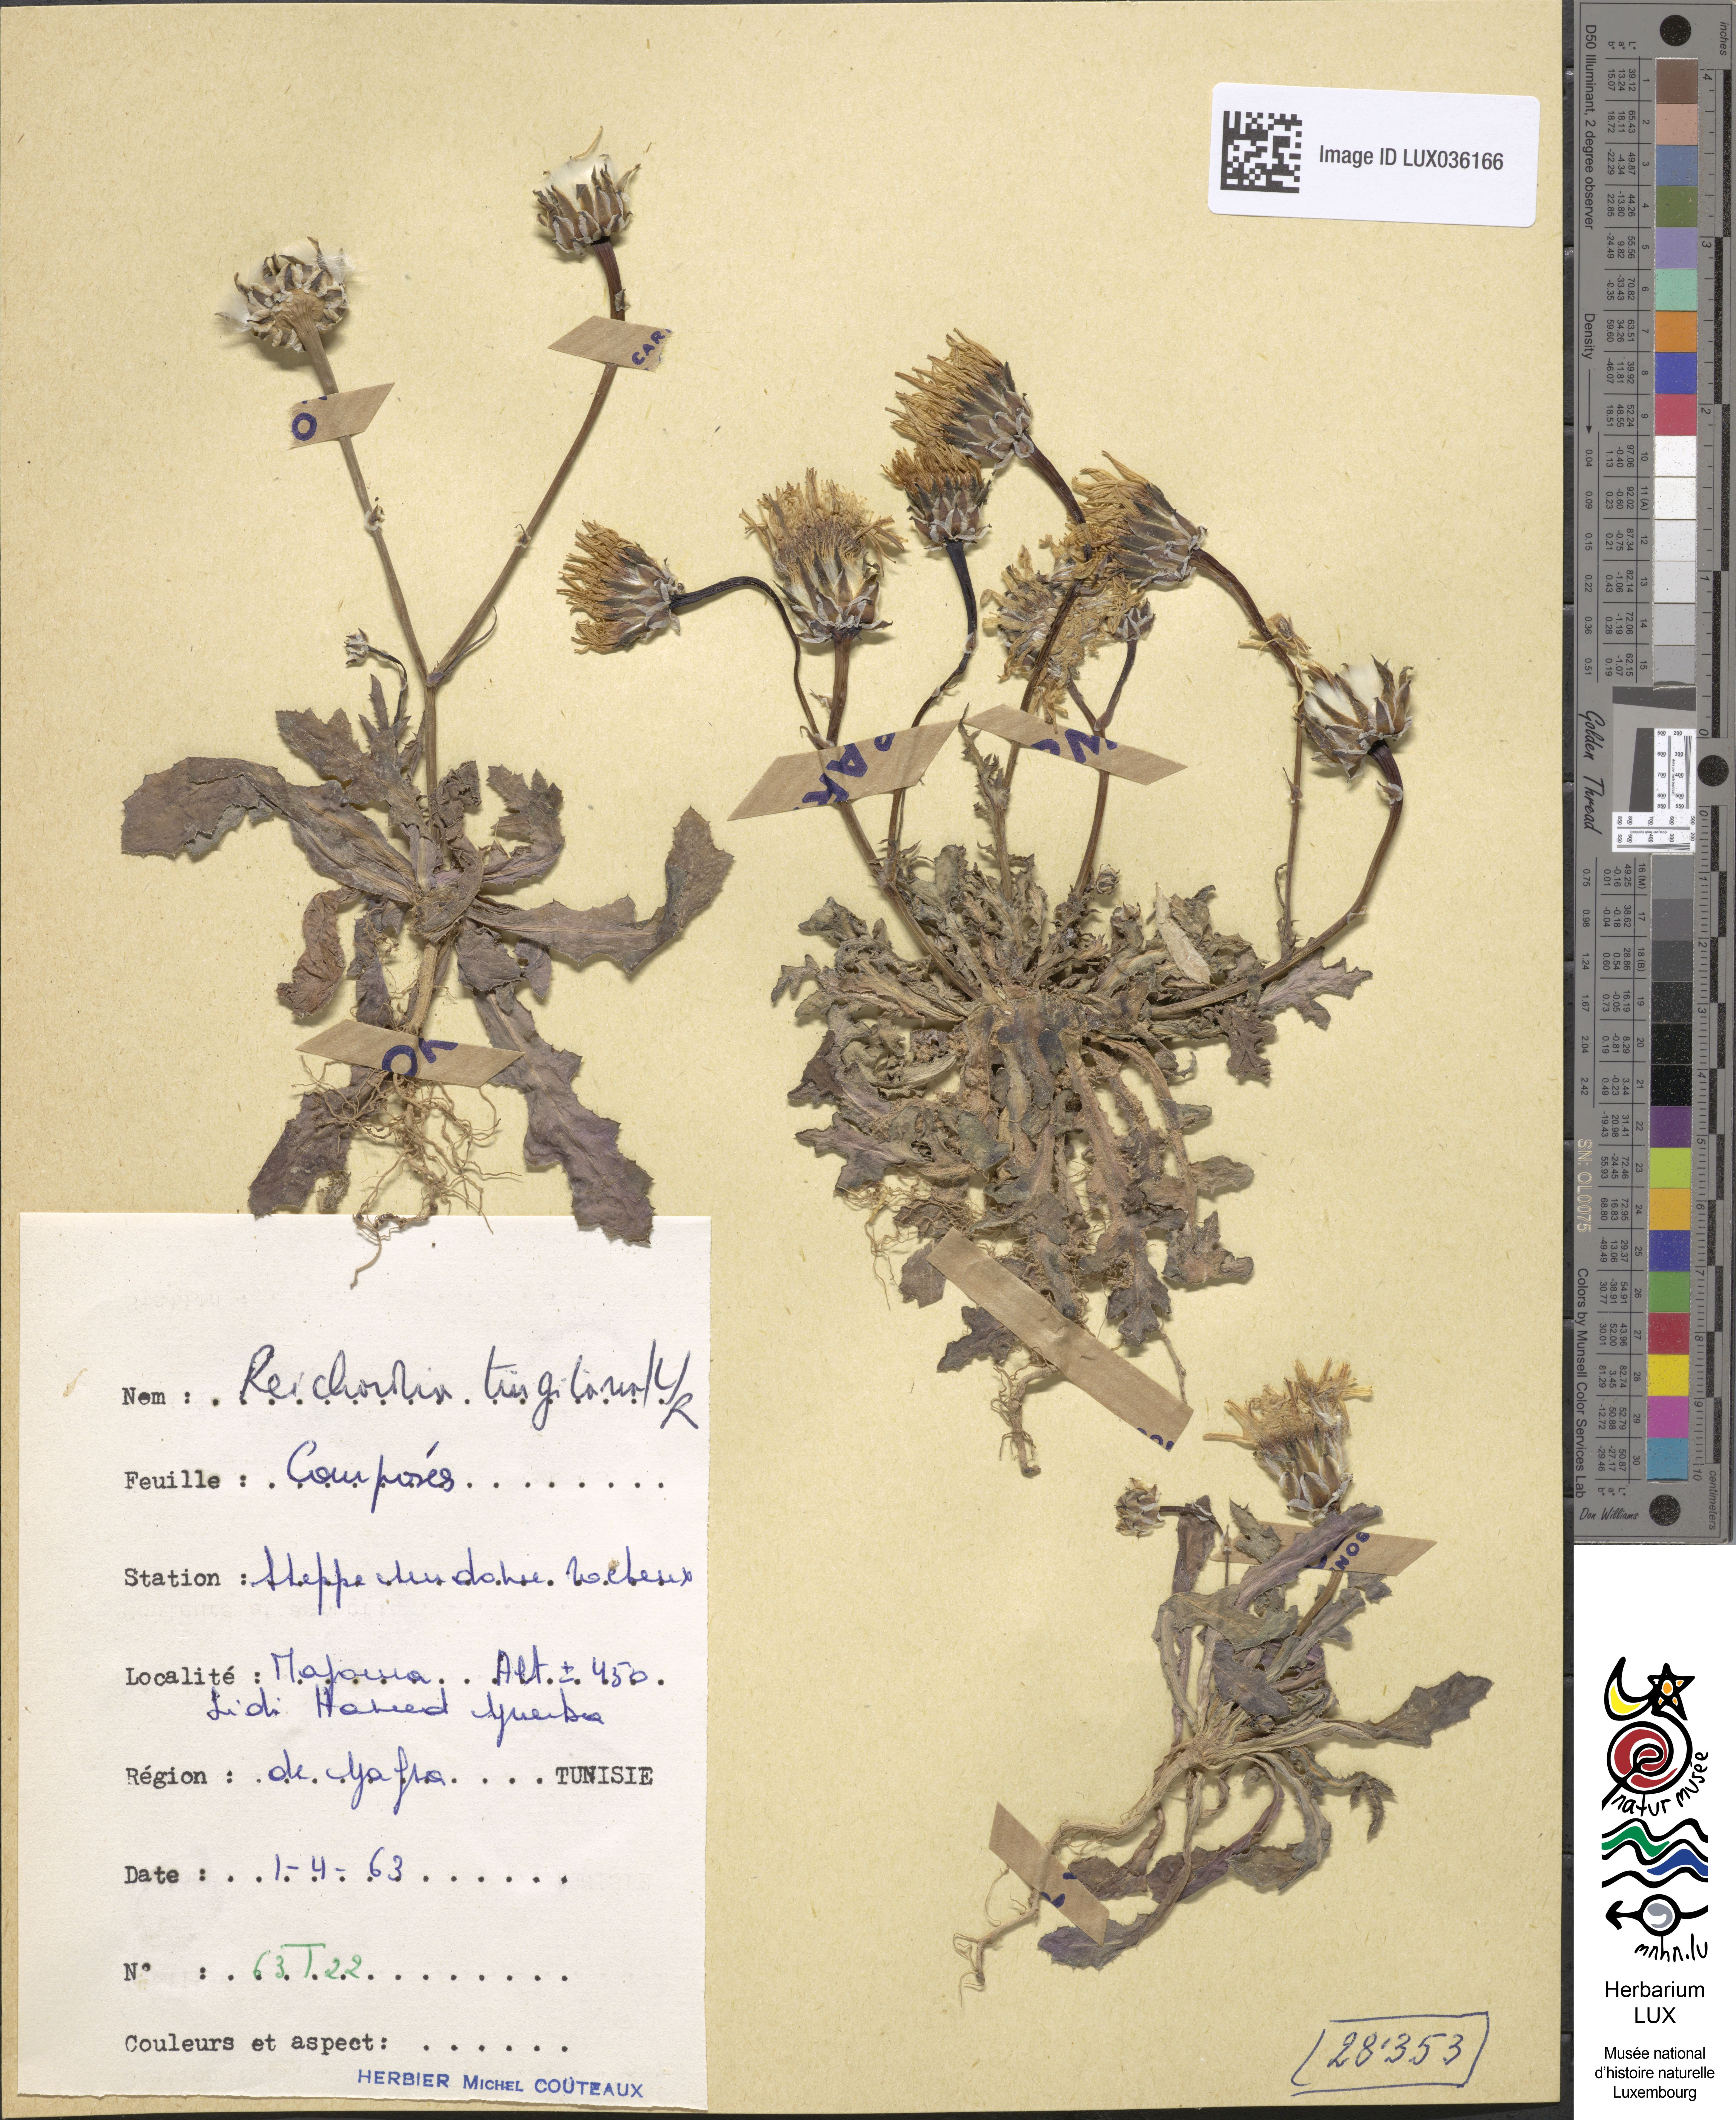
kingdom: Plantae
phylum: Tracheophyta
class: Magnoliopsida
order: Asterales
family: Asteraceae
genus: Reichardia
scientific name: Reichardia tingitana
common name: Reichardia
